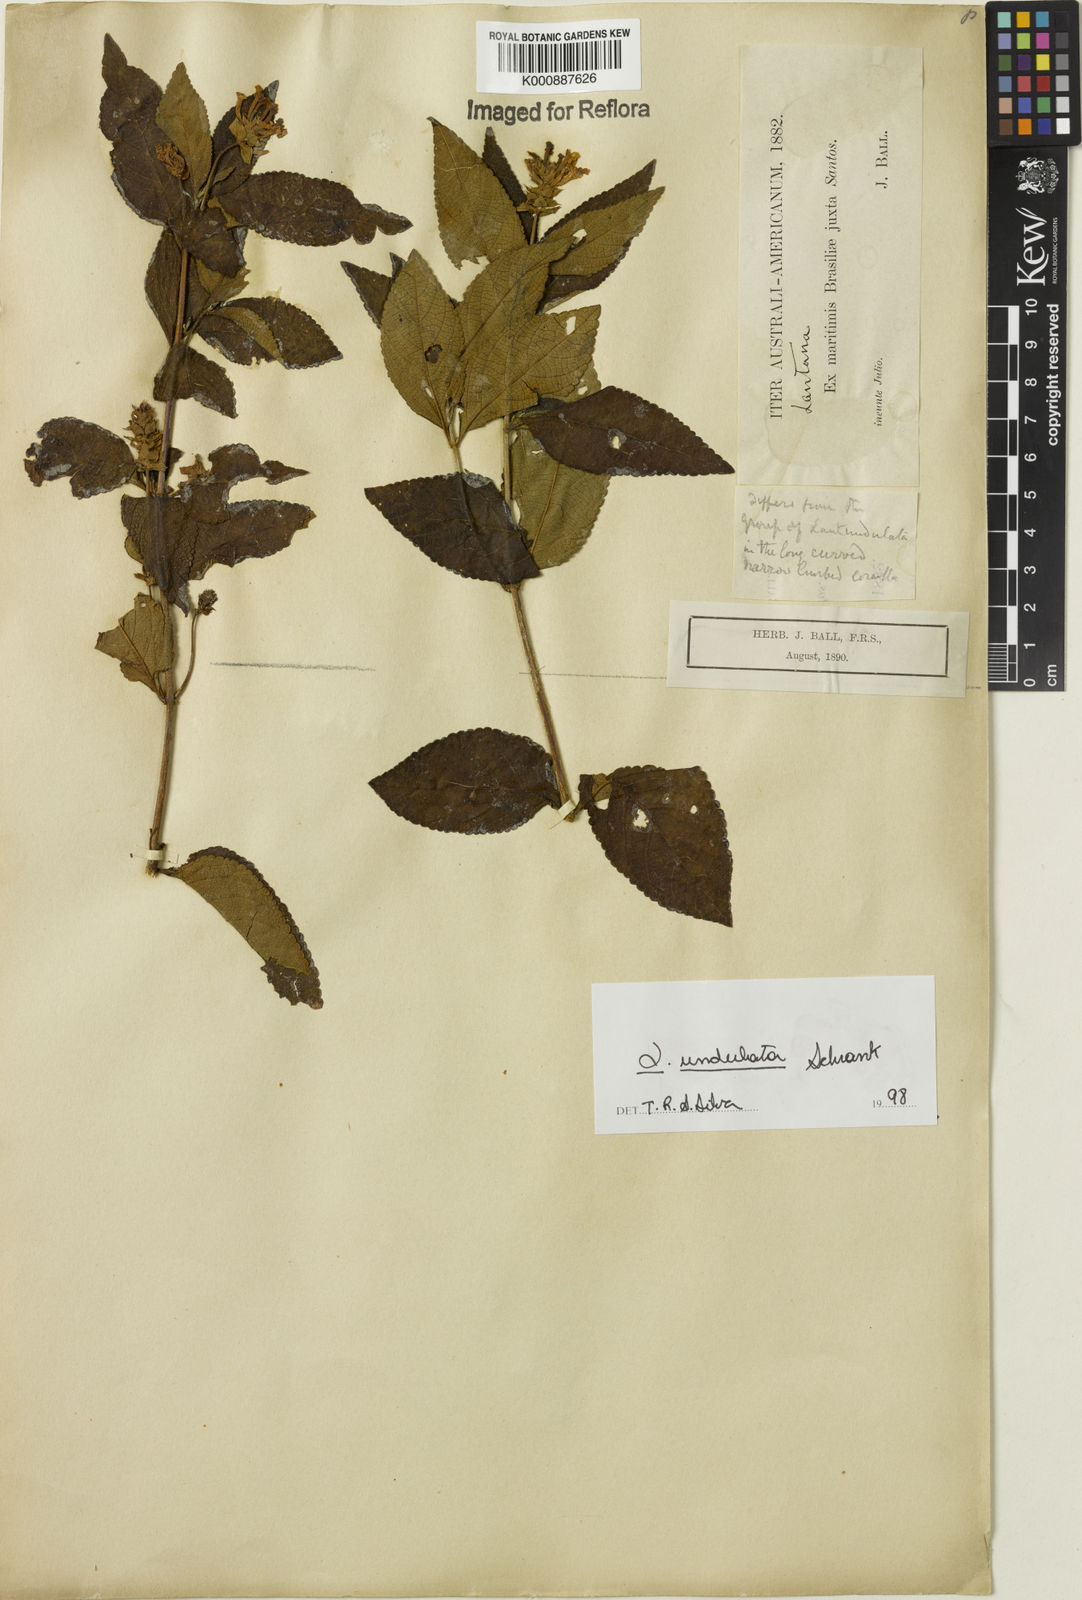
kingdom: Plantae
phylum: Tracheophyta
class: Magnoliopsida
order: Lamiales
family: Verbenaceae
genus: Lantana
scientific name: Lantana undulata
